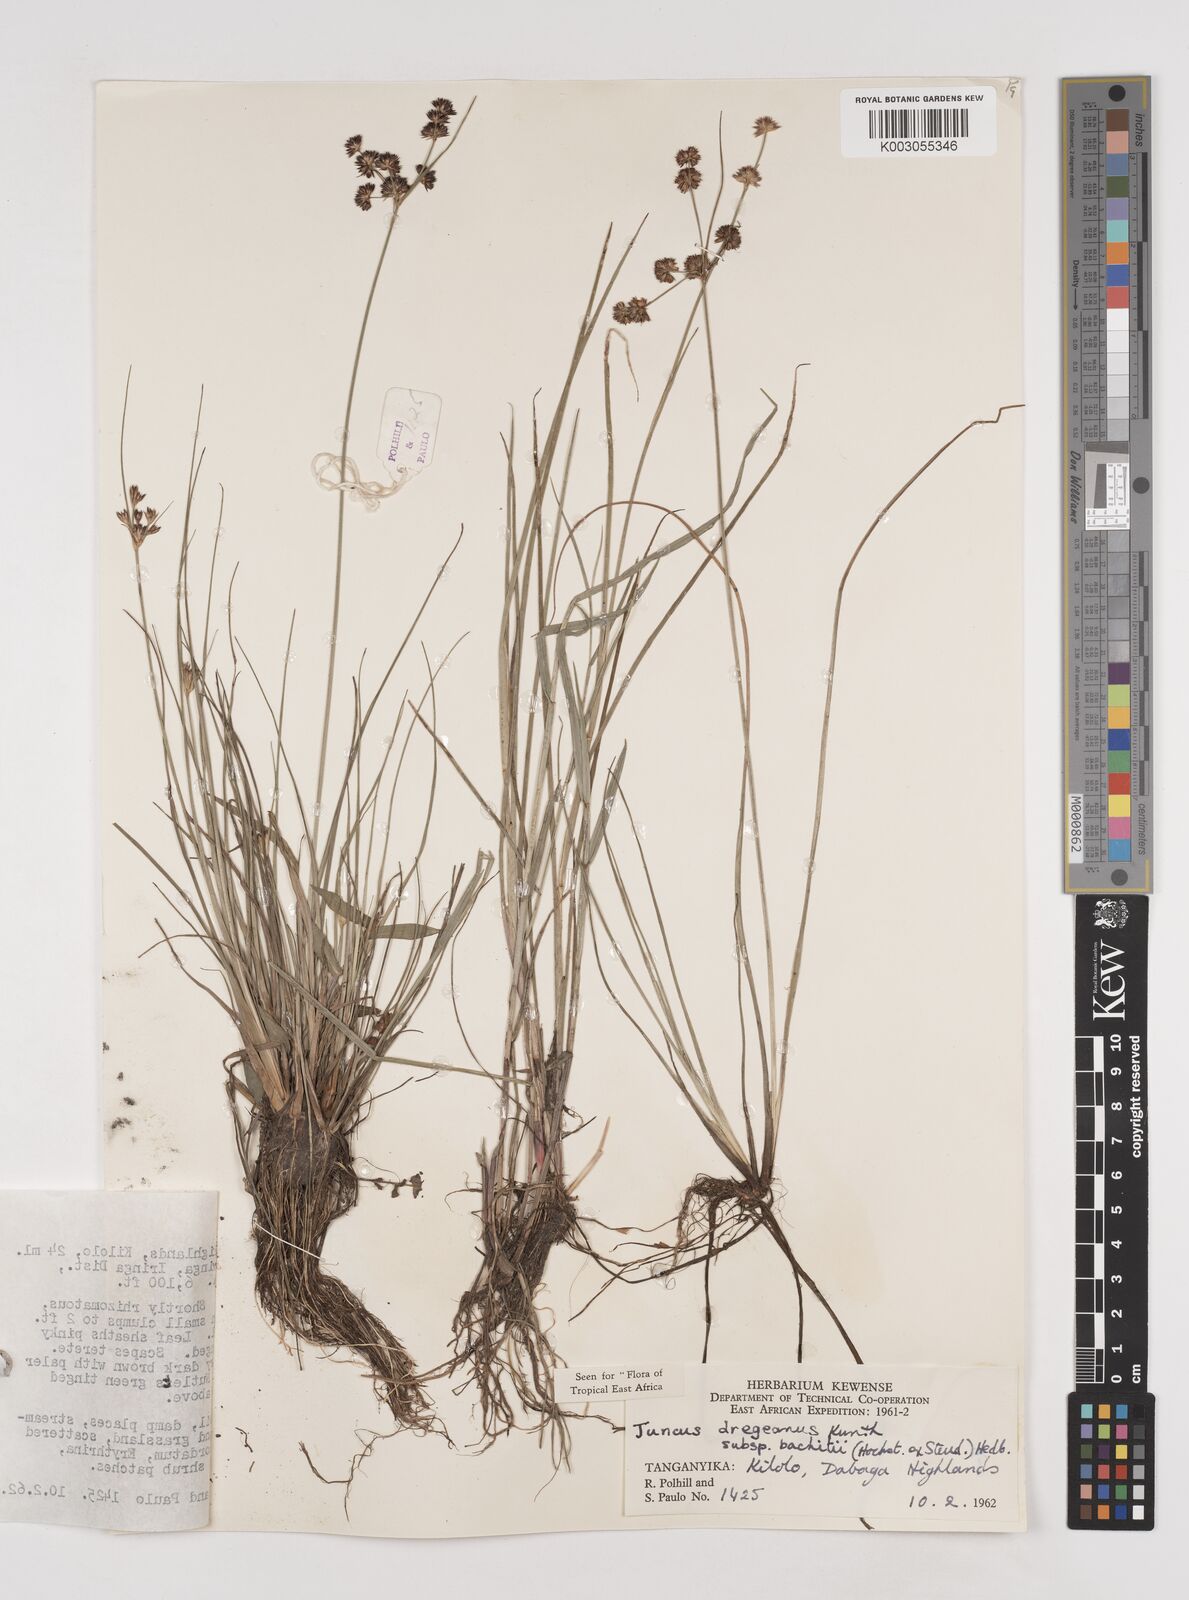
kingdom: Plantae
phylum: Tracheophyta
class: Liliopsida
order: Poales
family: Juncaceae
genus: Juncus
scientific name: Juncus dregeanus
